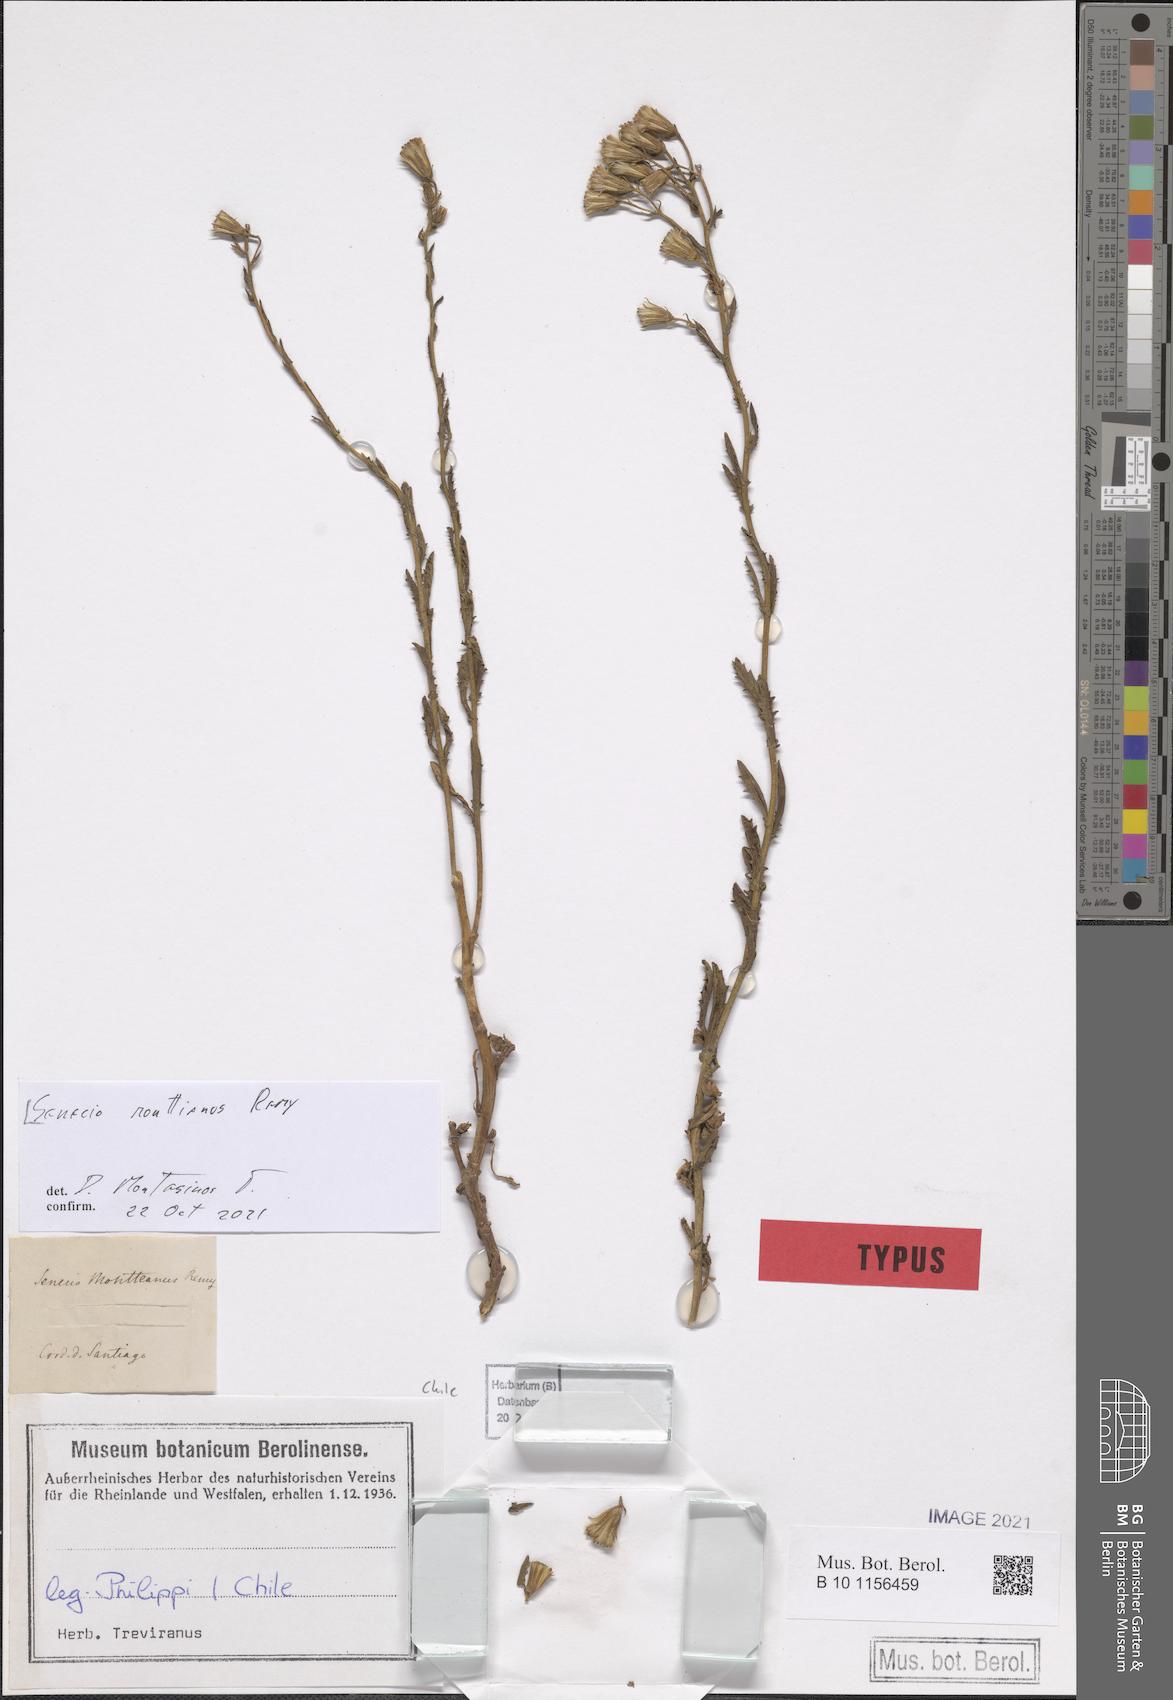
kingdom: Plantae
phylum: Tracheophyta
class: Magnoliopsida
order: Asterales
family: Asteraceae
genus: Senecio
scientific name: Senecio monttianus
